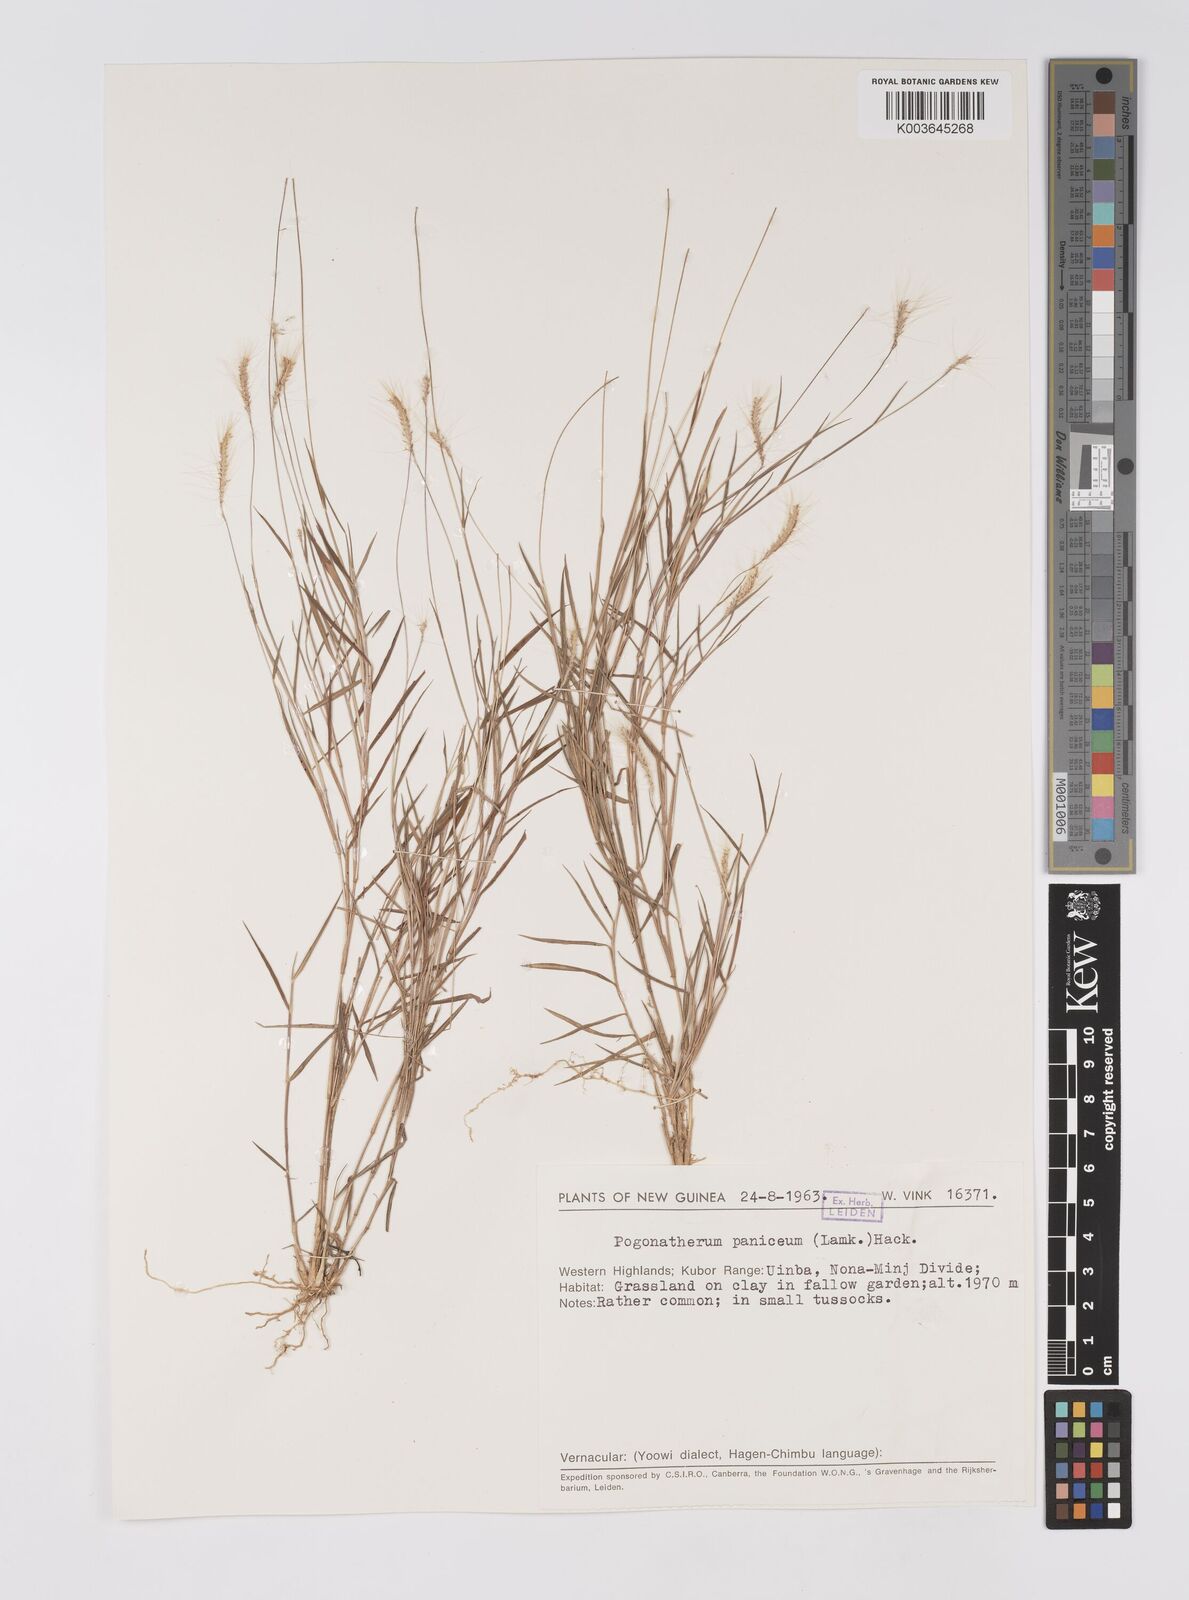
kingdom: Plantae
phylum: Tracheophyta
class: Liliopsida
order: Poales
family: Poaceae
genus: Pogonatherum
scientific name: Pogonatherum crinitum
